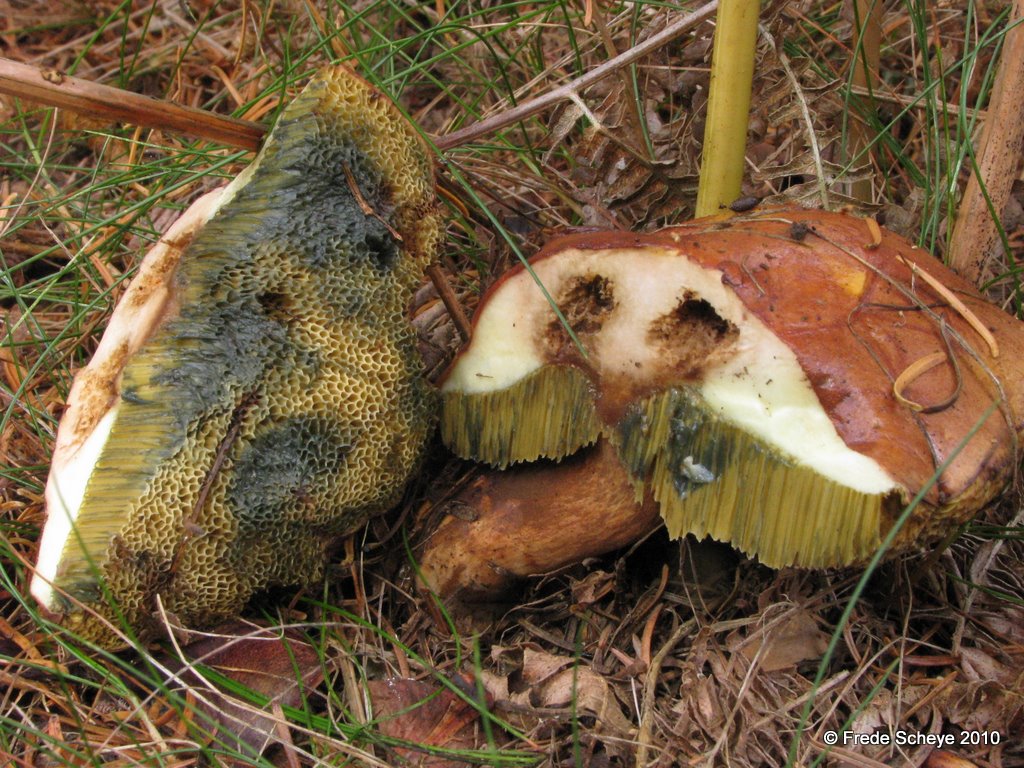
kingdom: Fungi
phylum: Basidiomycota
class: Agaricomycetes
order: Boletales
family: Boletaceae
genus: Imleria
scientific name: Imleria badia
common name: brunstokket rørhat
